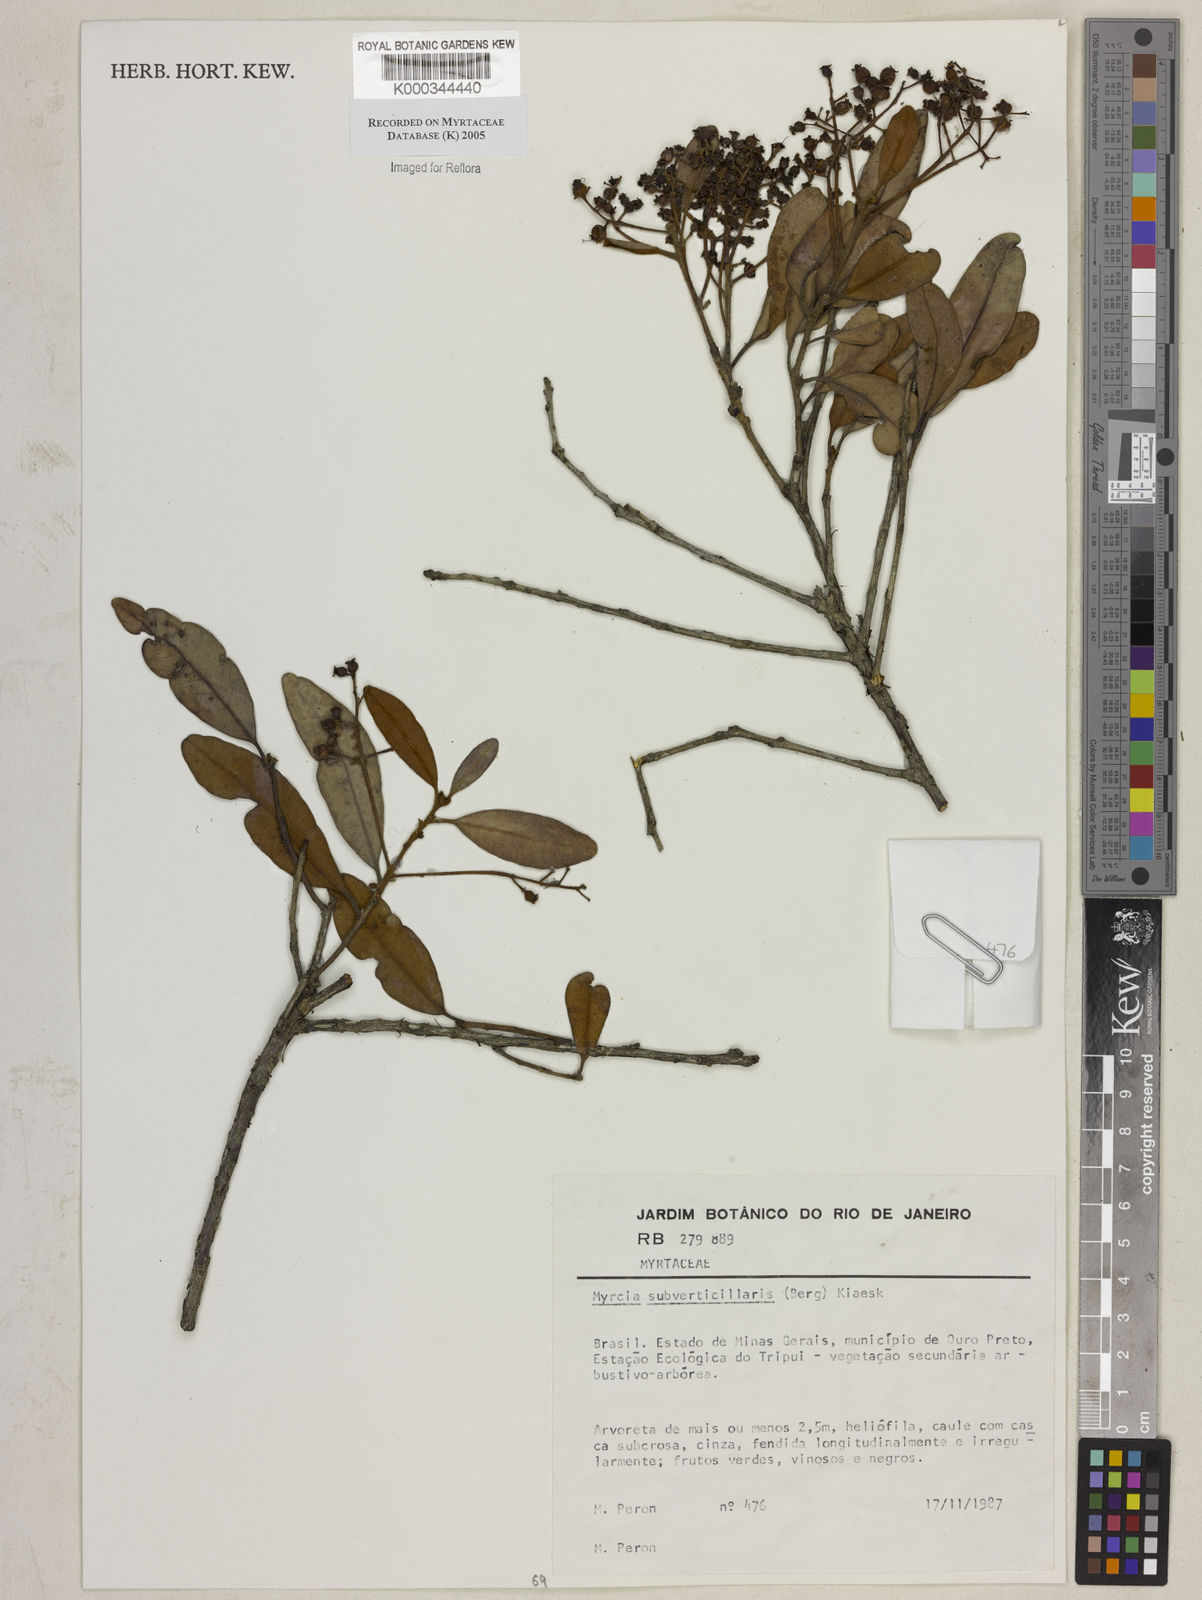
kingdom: Plantae
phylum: Tracheophyta
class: Magnoliopsida
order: Myrtales
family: Myrtaceae
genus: Myrcia
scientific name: Myrcia
